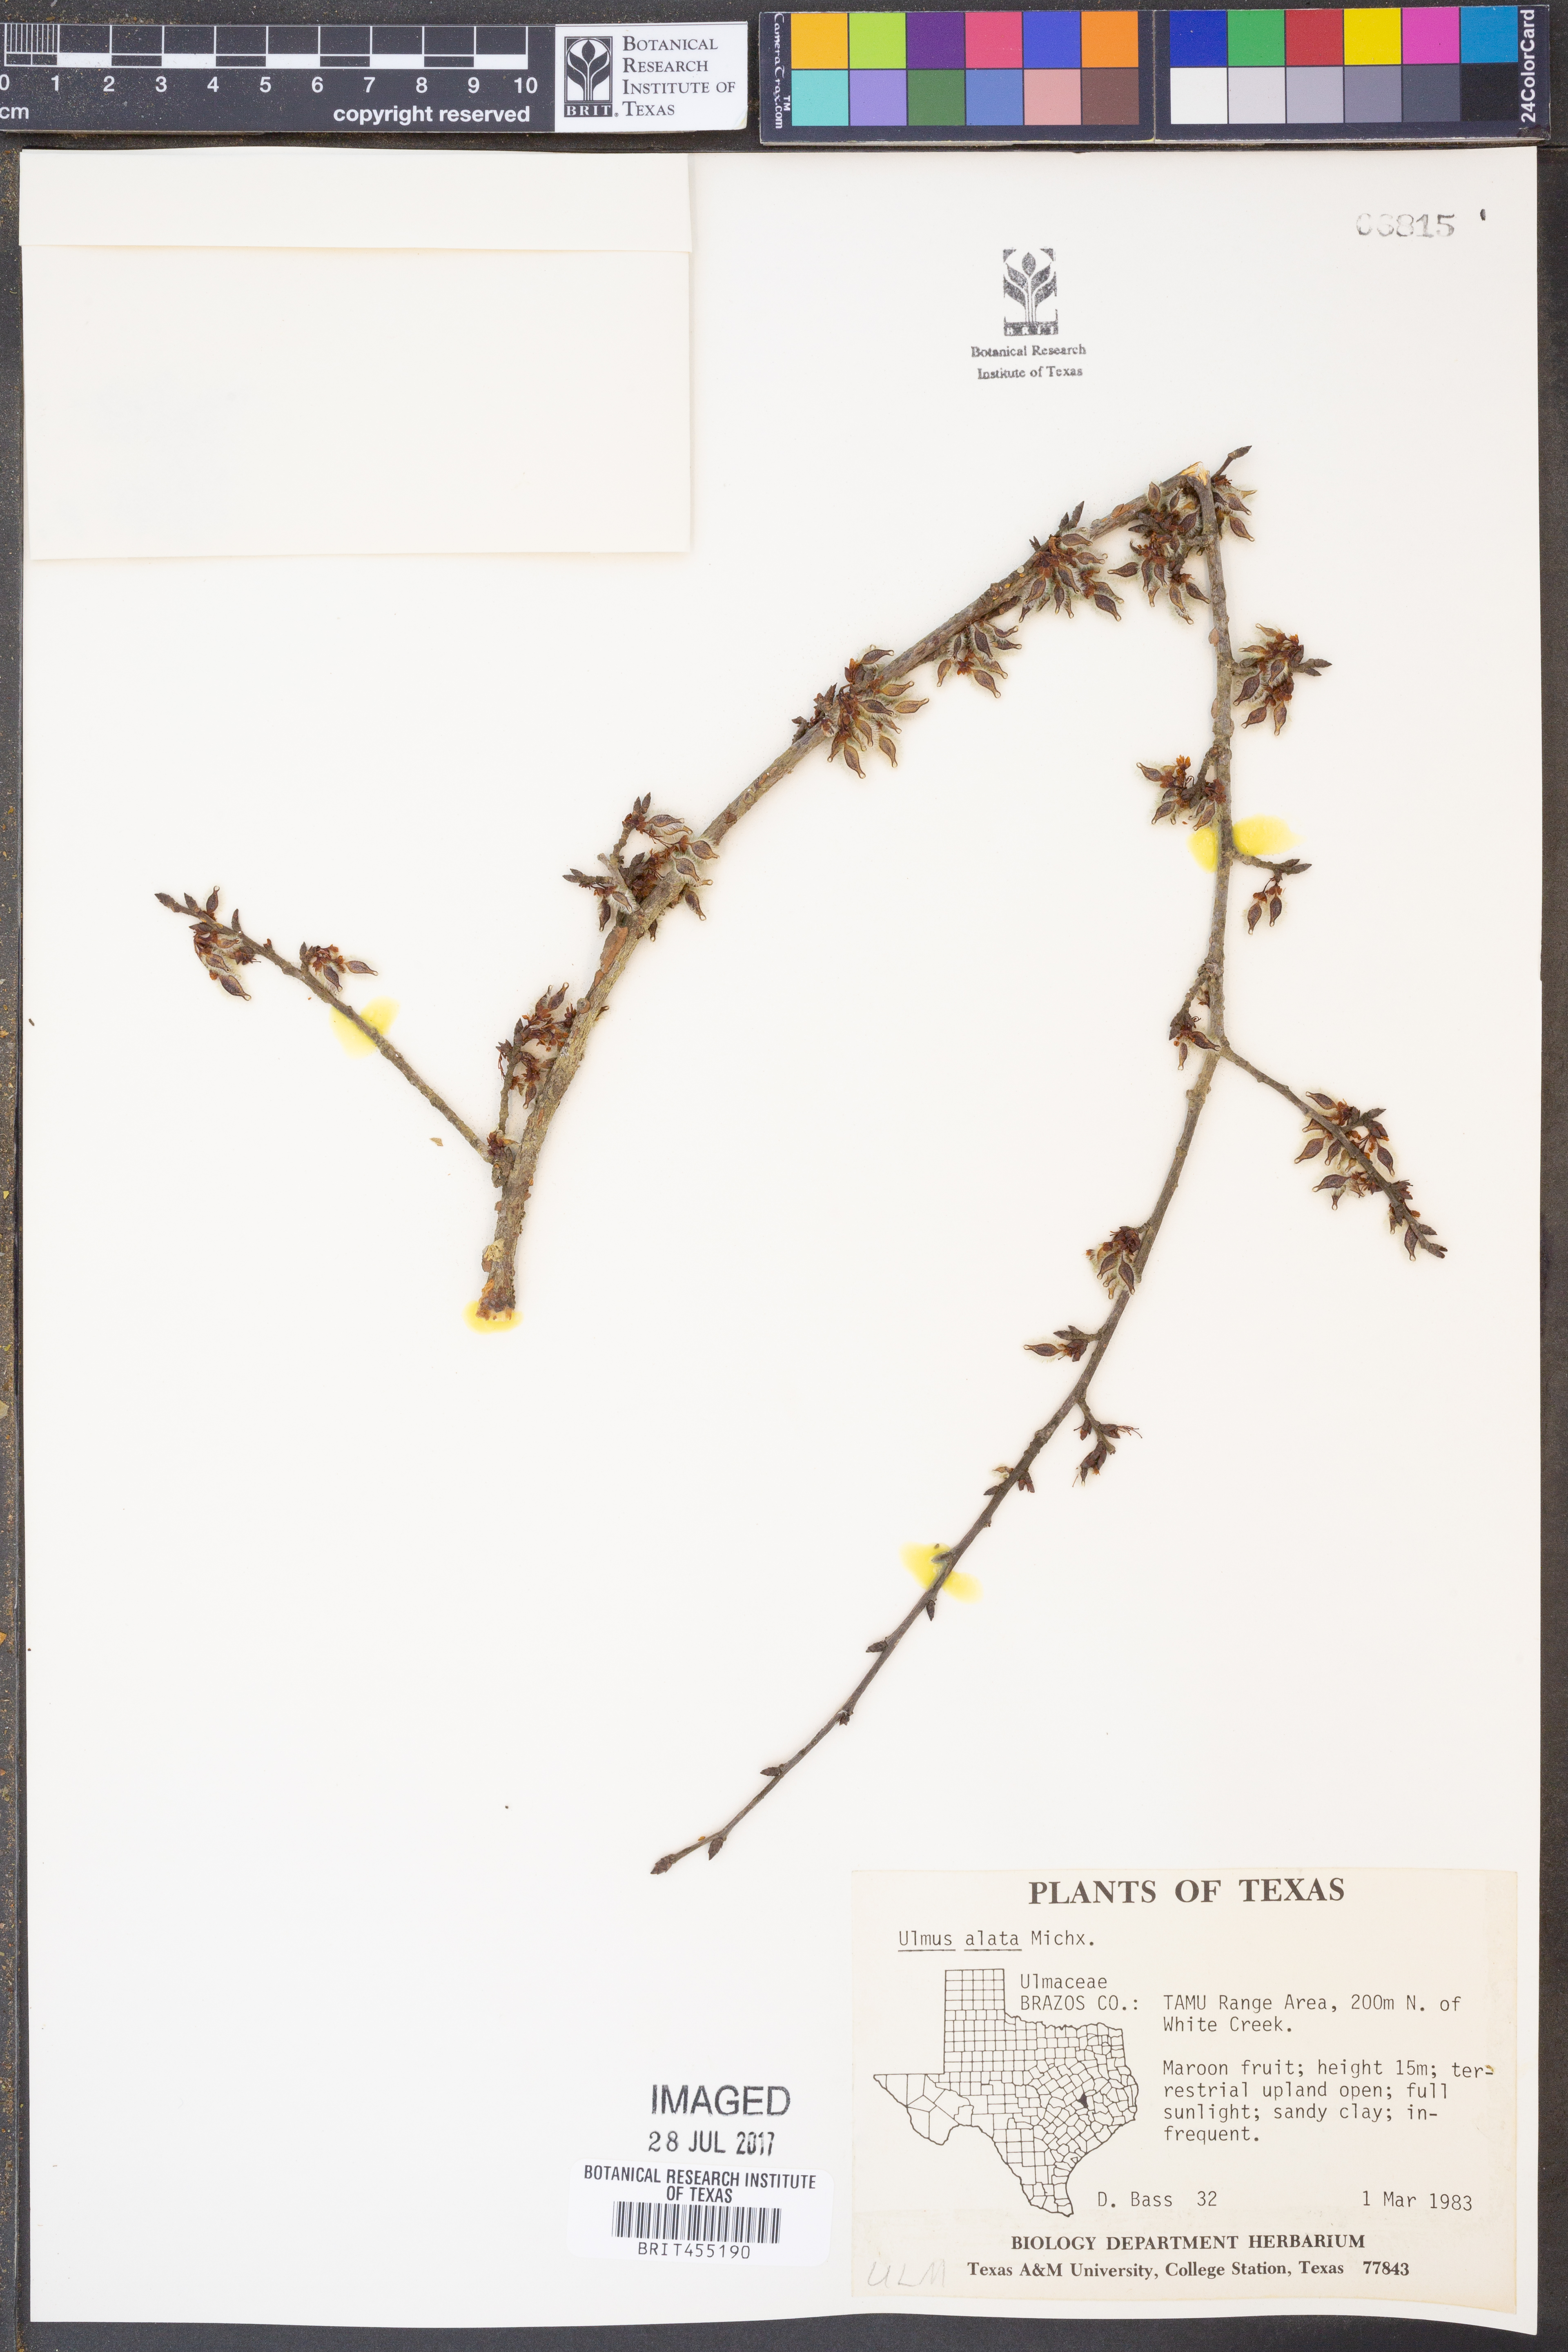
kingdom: Plantae
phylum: Tracheophyta
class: Magnoliopsida
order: Rosales
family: Ulmaceae
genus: Ulmus
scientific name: Ulmus alata
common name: Winged elm
